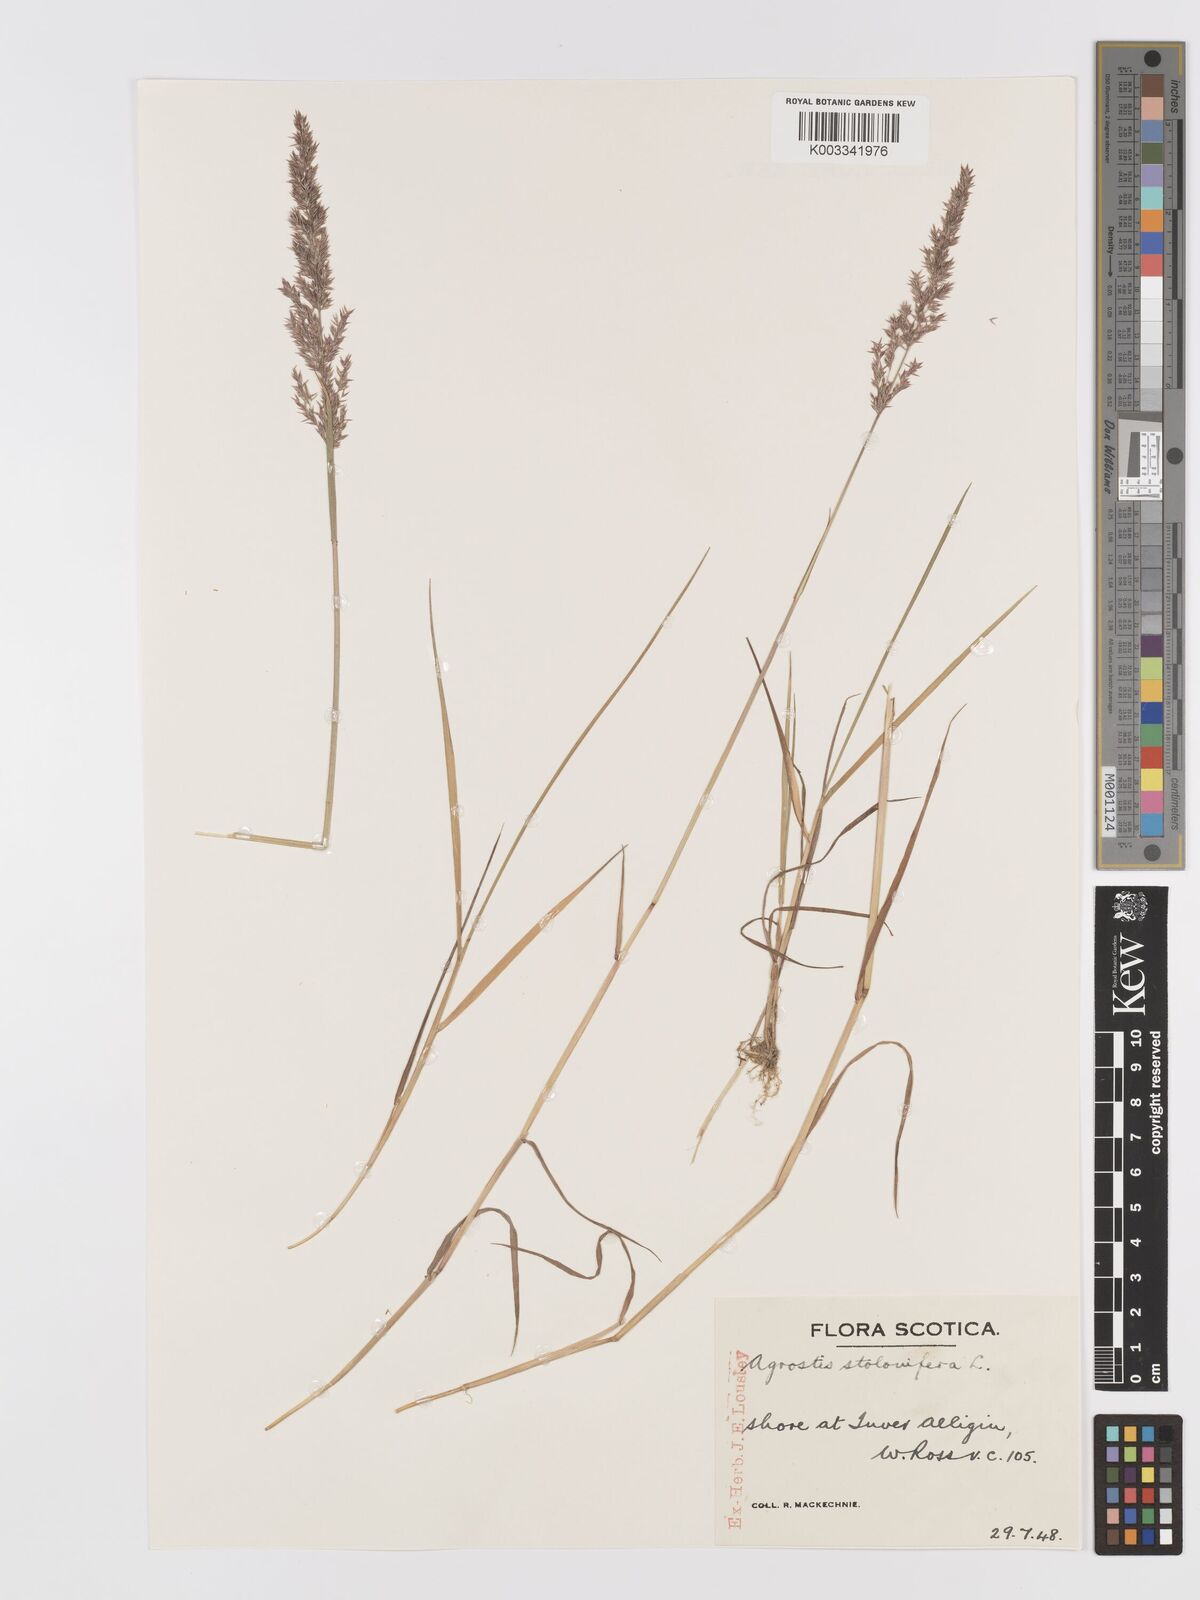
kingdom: Plantae
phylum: Tracheophyta
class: Liliopsida
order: Poales
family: Poaceae
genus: Agrostis
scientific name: Agrostis stolonifera
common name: Creeping bentgrass
